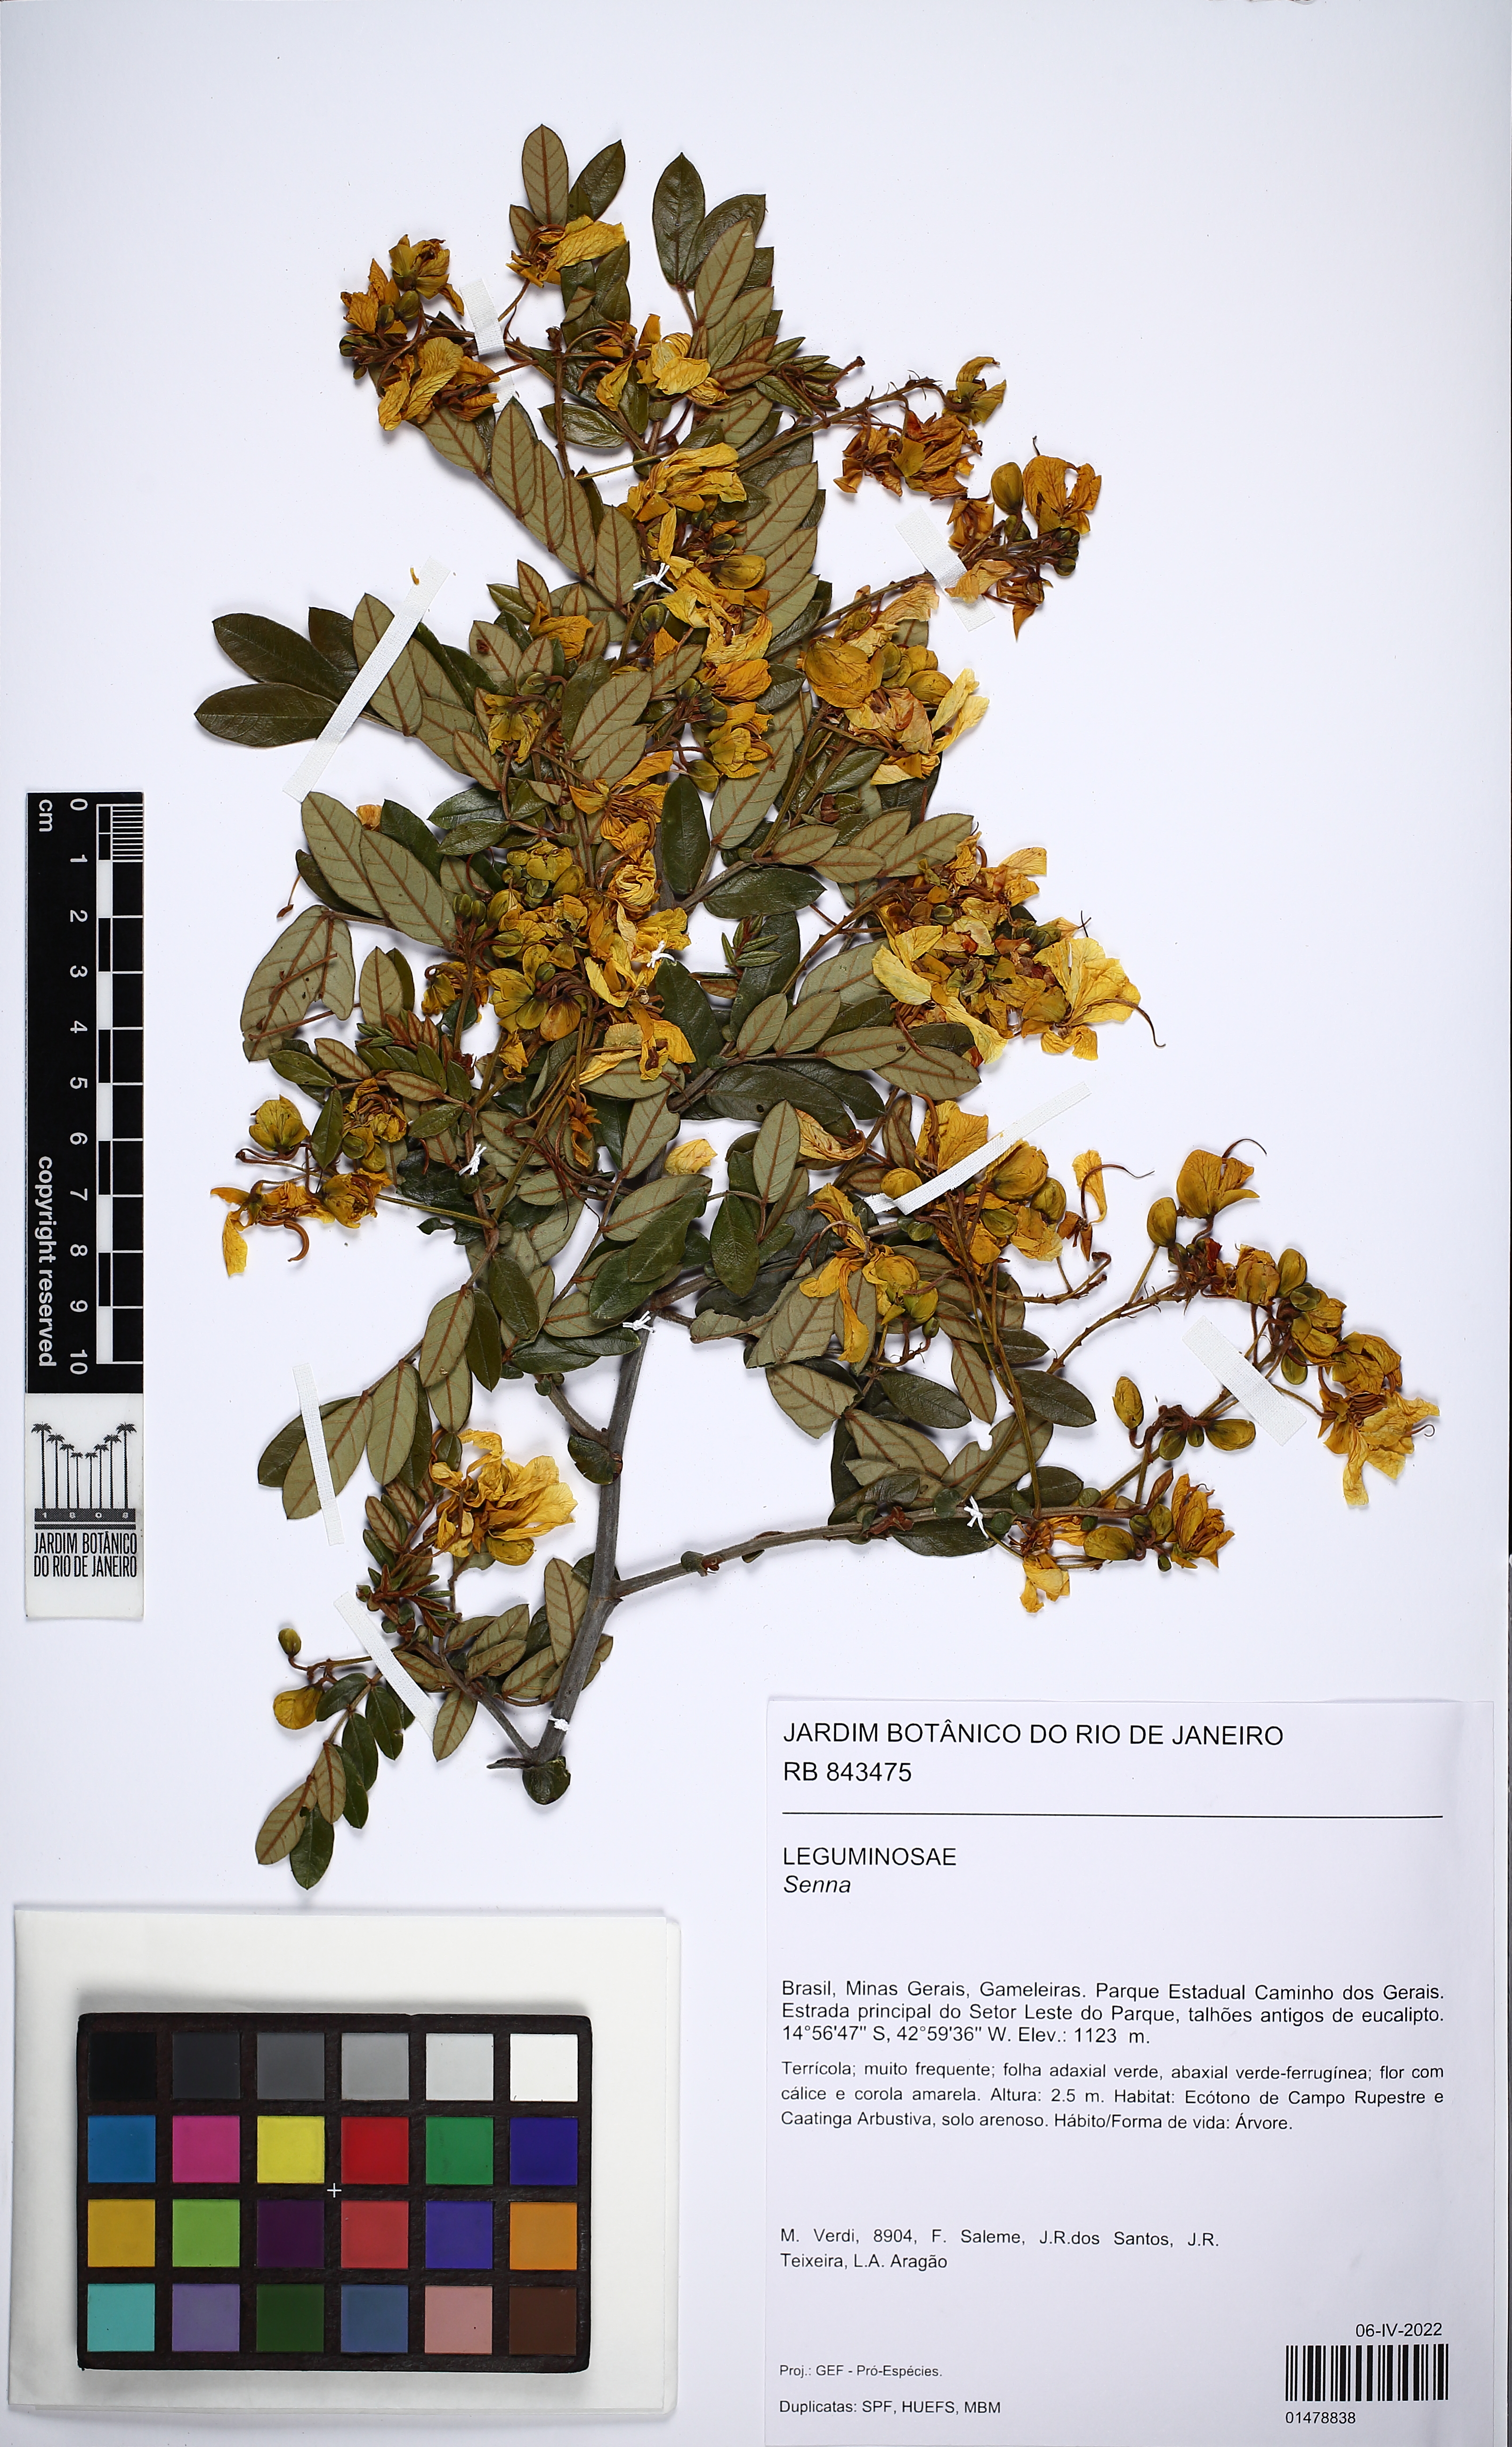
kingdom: Plantae
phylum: Tracheophyta
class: Magnoliopsida
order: Fabales
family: Fabaceae
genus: Senna
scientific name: Senna
